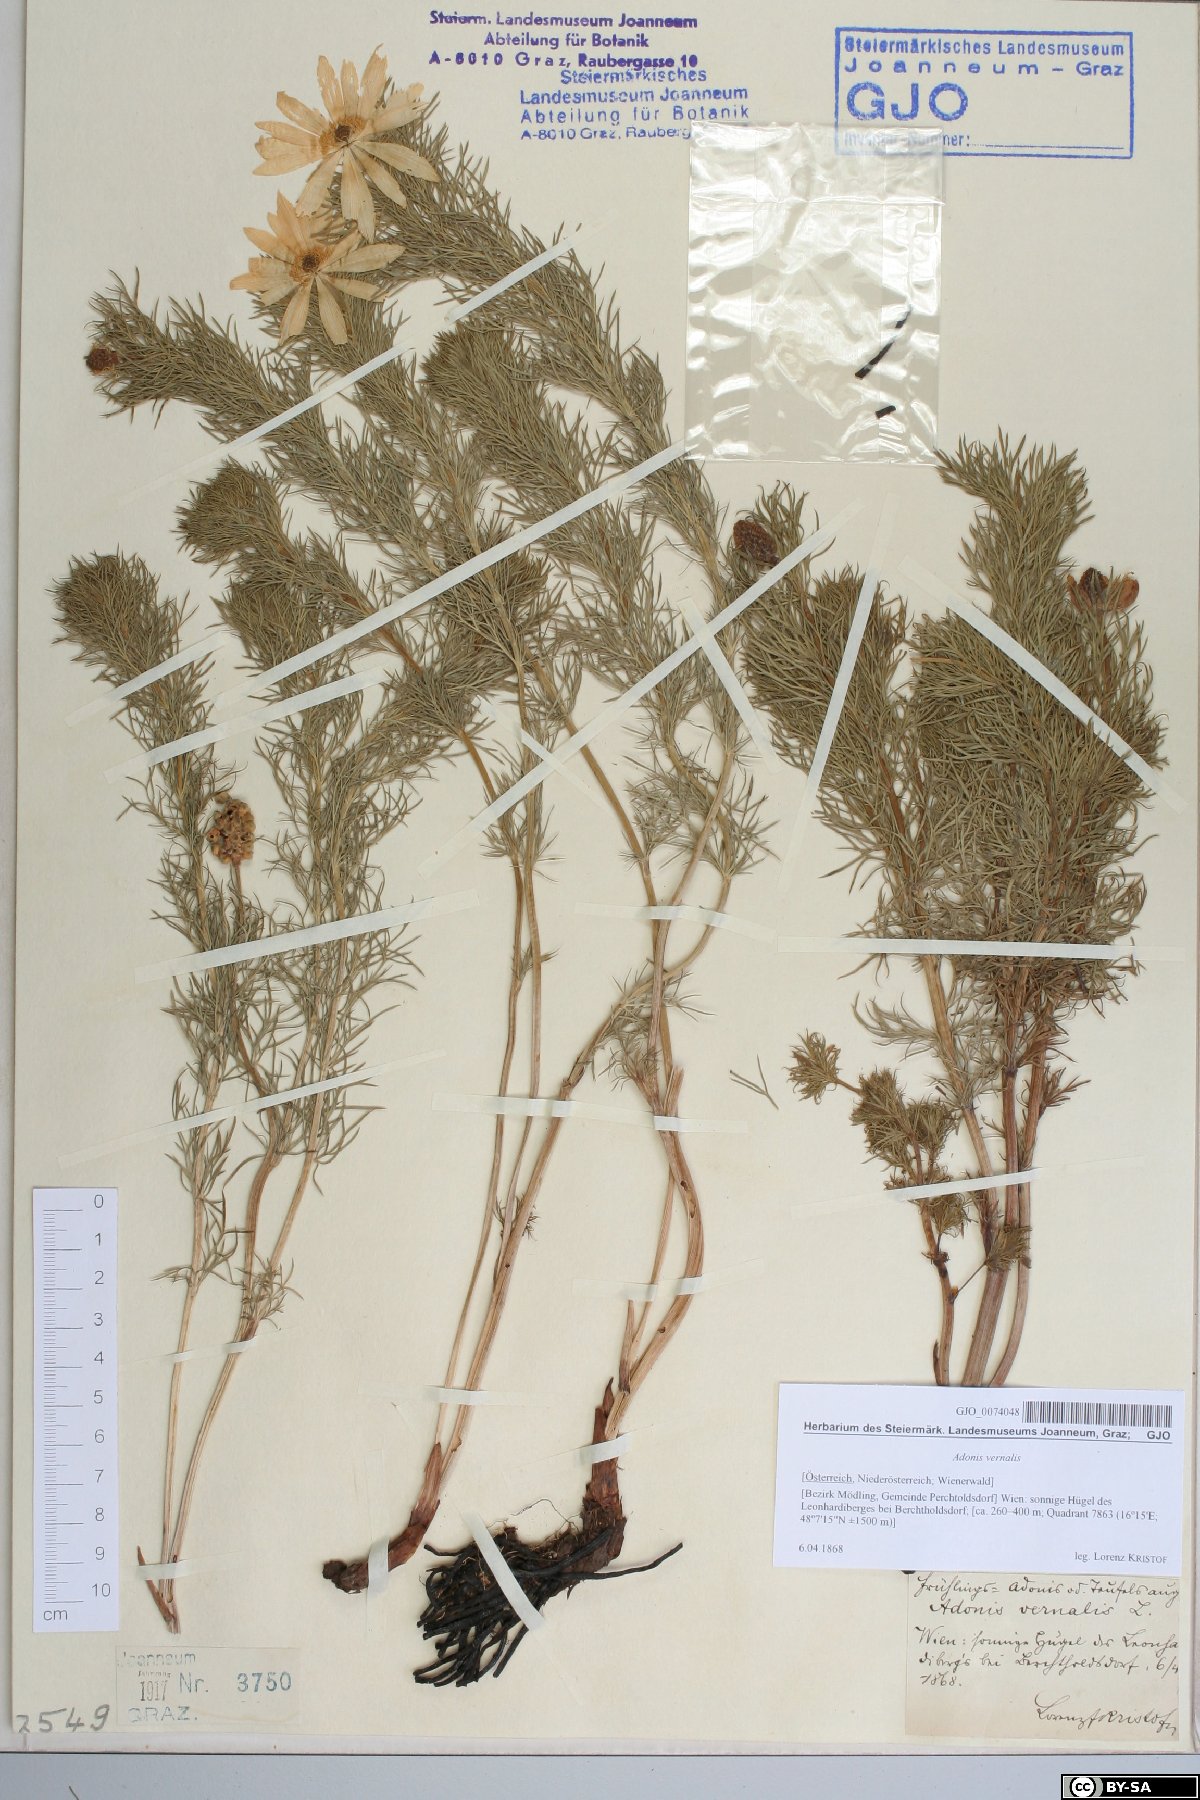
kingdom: Plantae
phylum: Tracheophyta
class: Magnoliopsida
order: Ranunculales
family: Ranunculaceae
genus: Adonis
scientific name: Adonis vernalis
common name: Yellow pheasants-eye
